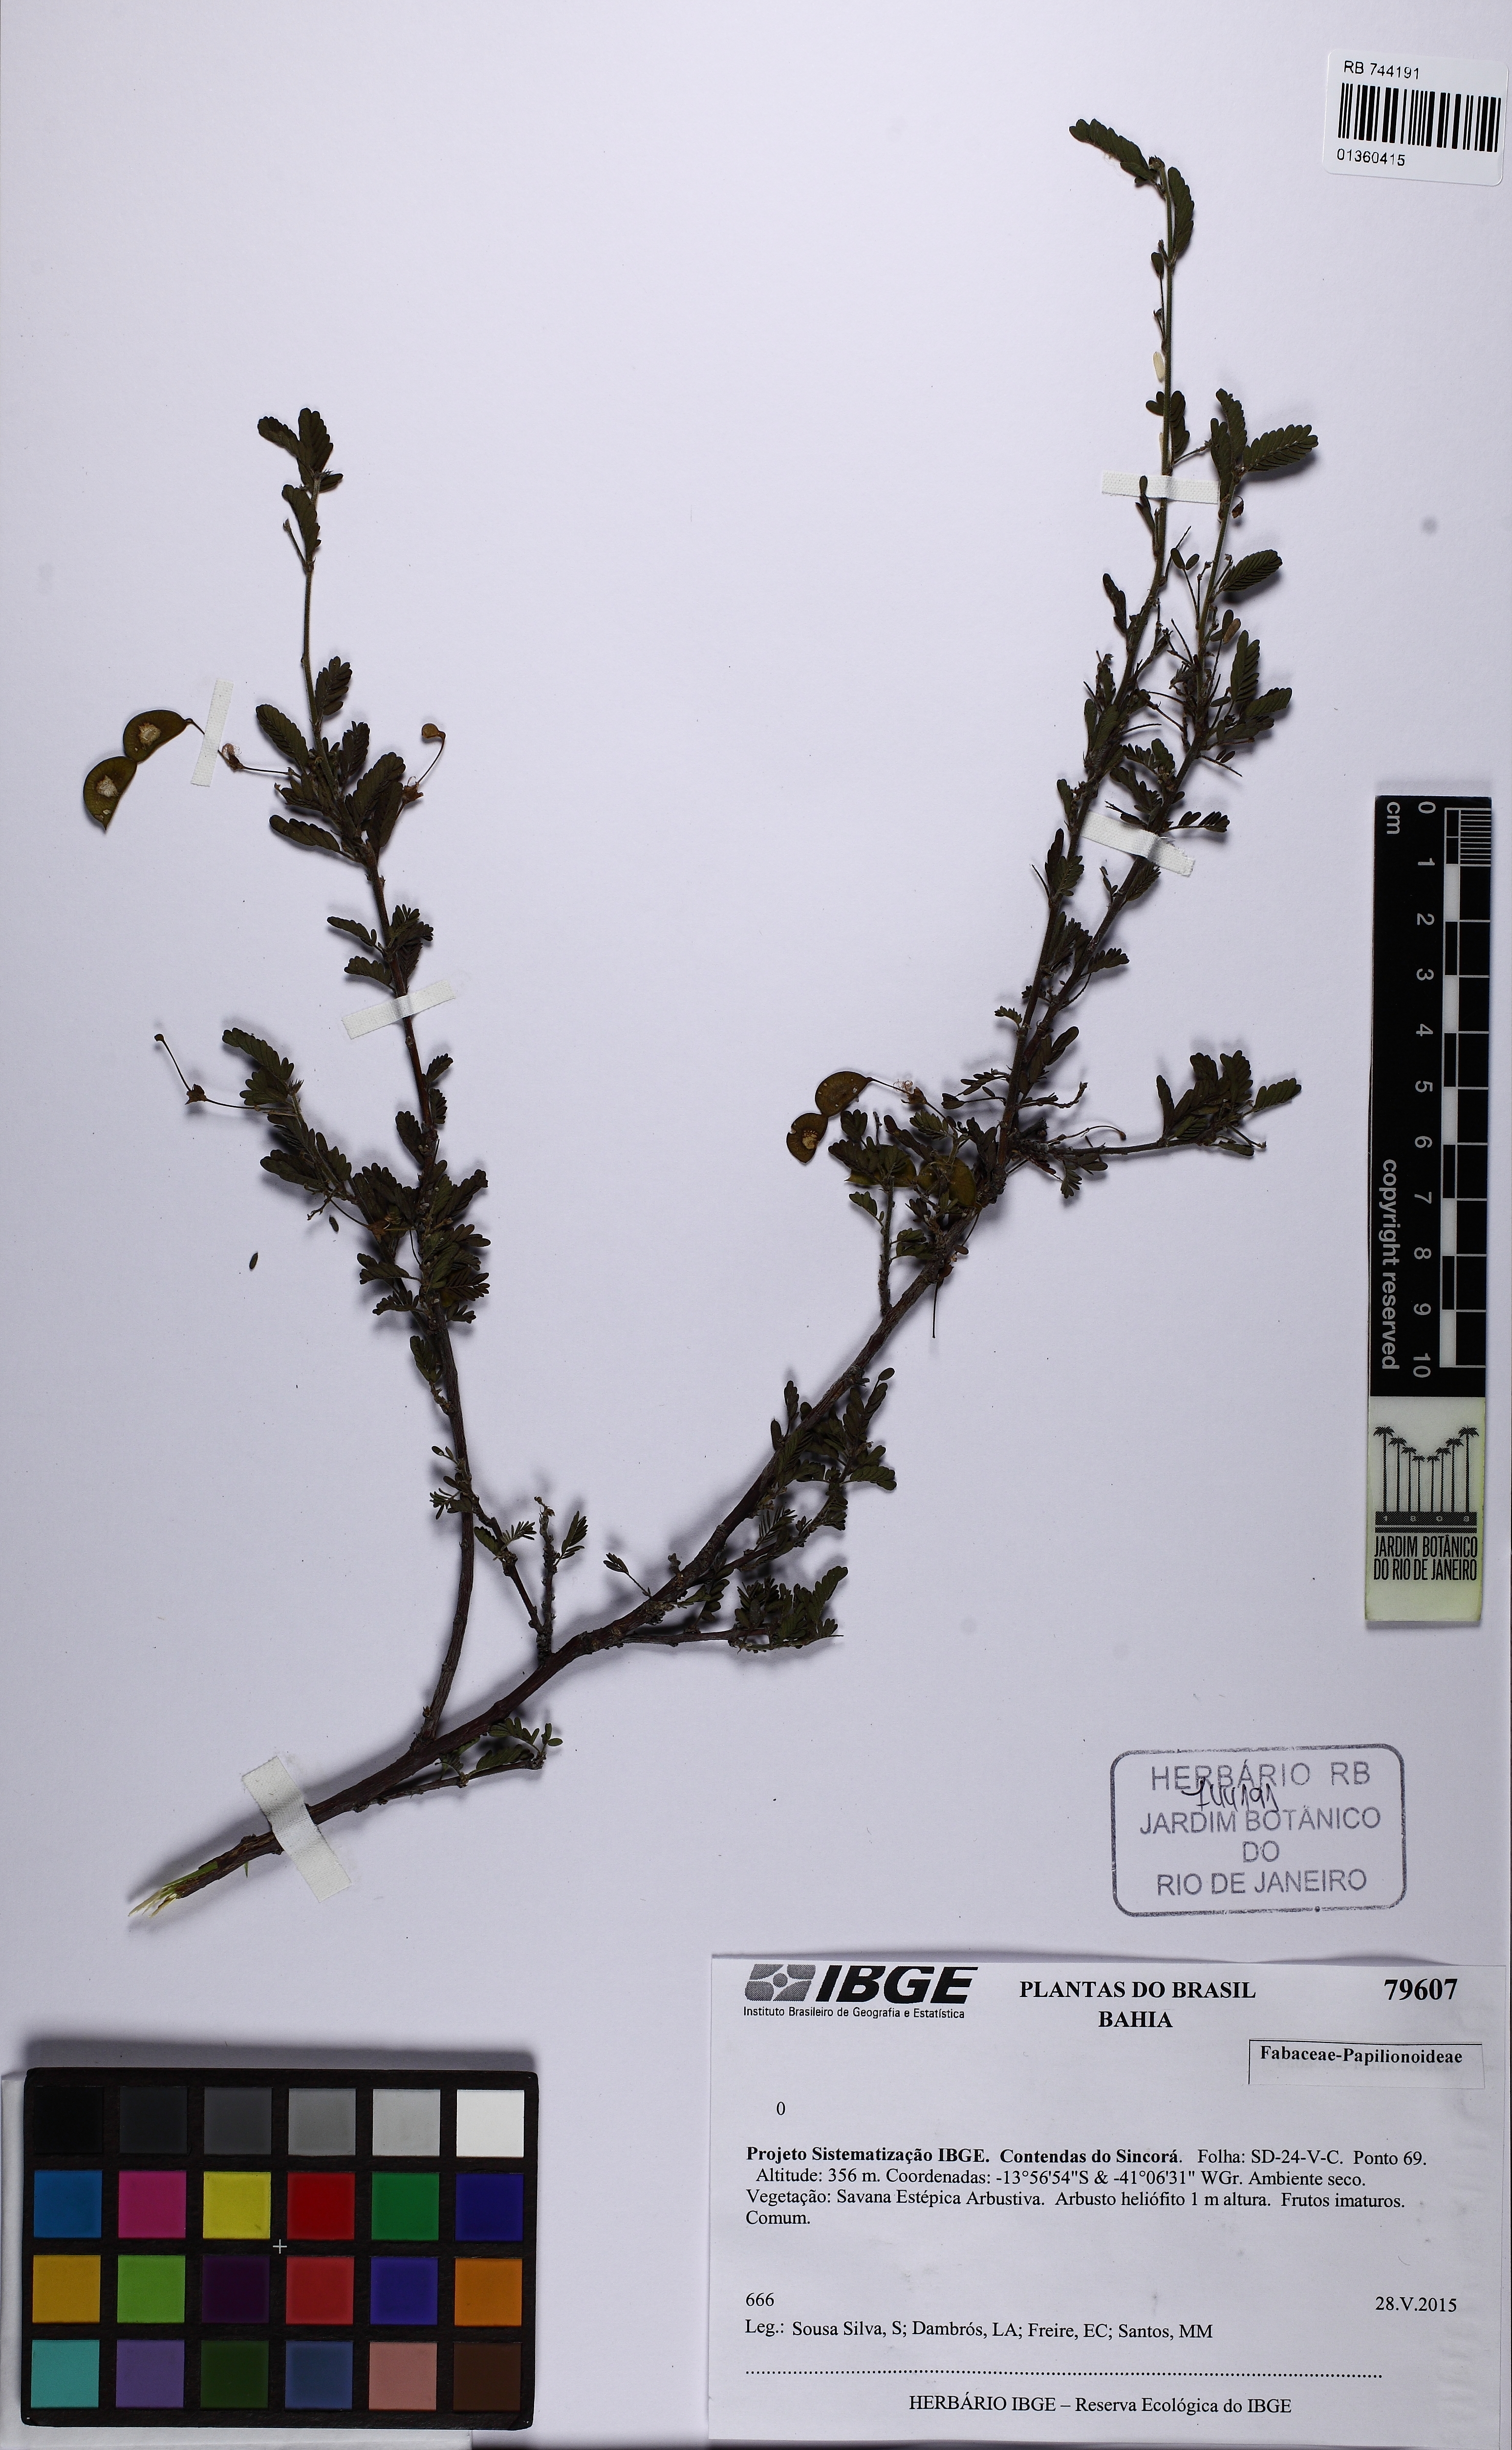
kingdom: Plantae
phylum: Tracheophyta
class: Magnoliopsida
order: Fabales
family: Fabaceae
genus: Aeschynomene
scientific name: Aeschynomene
